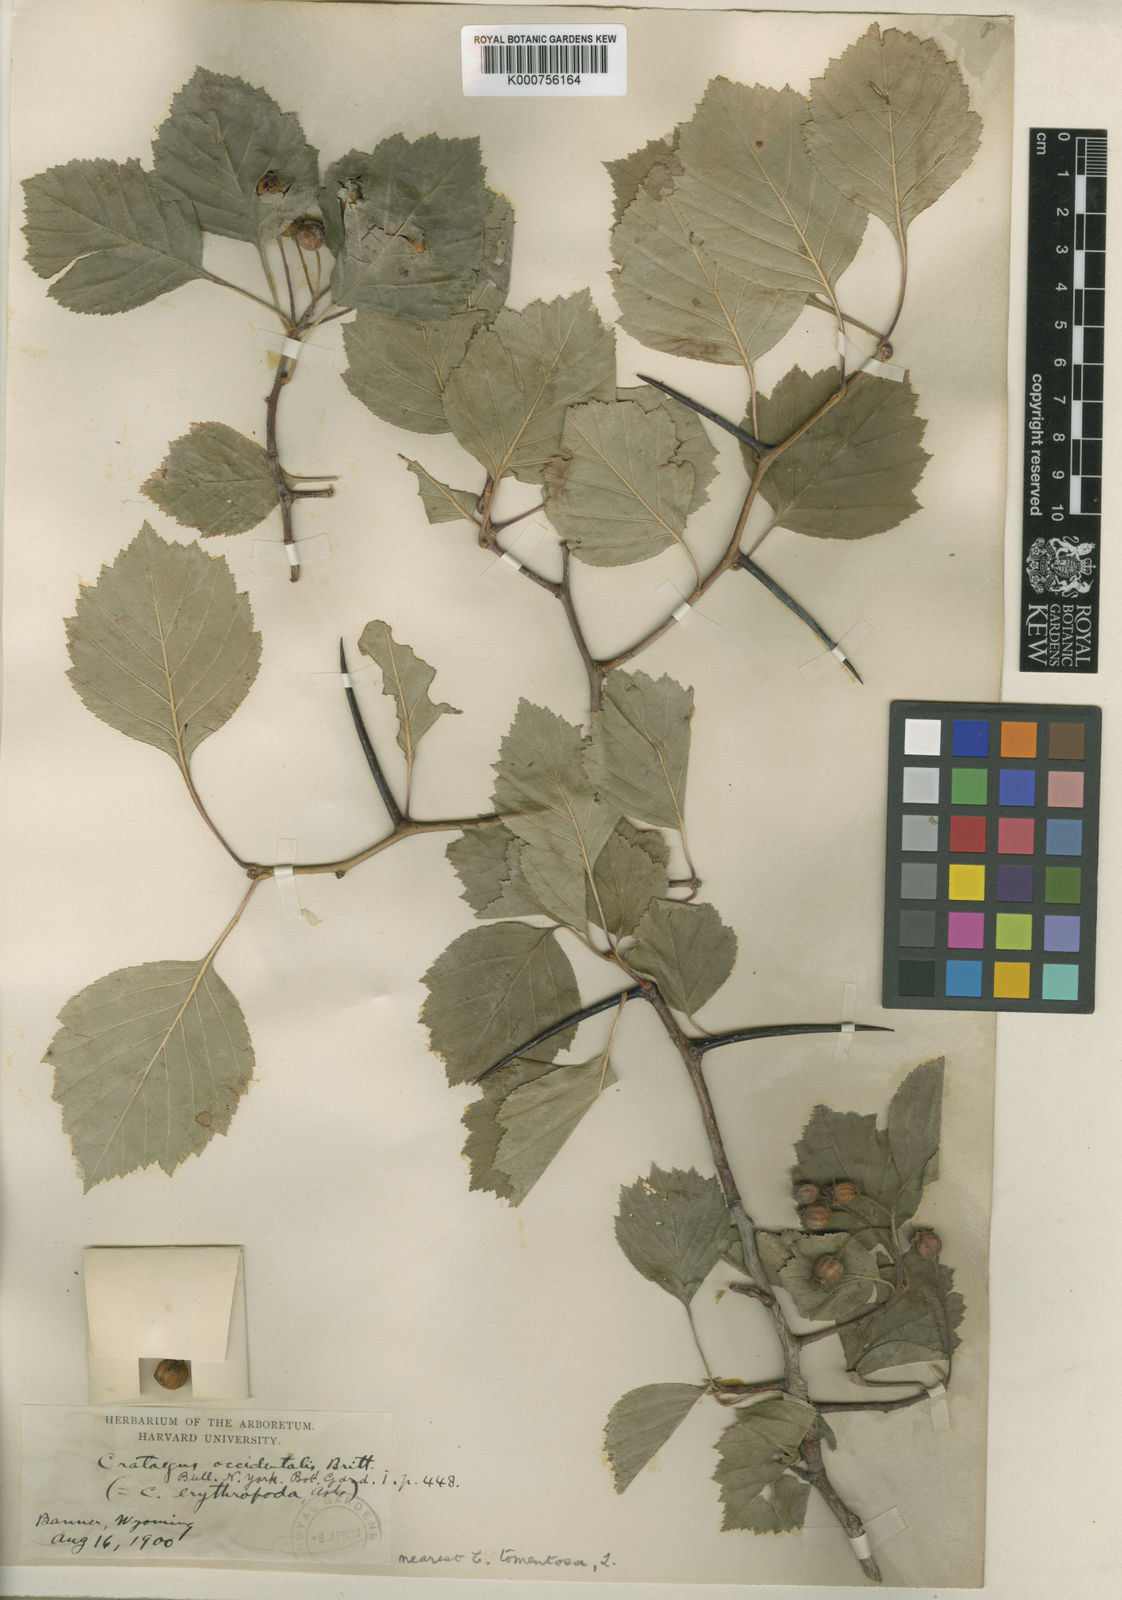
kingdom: Plantae
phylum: Tracheophyta
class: Magnoliopsida
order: Rosales
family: Rosaceae
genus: Crataegus
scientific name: Crataegus succulenta
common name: Fleshy hawthorn
